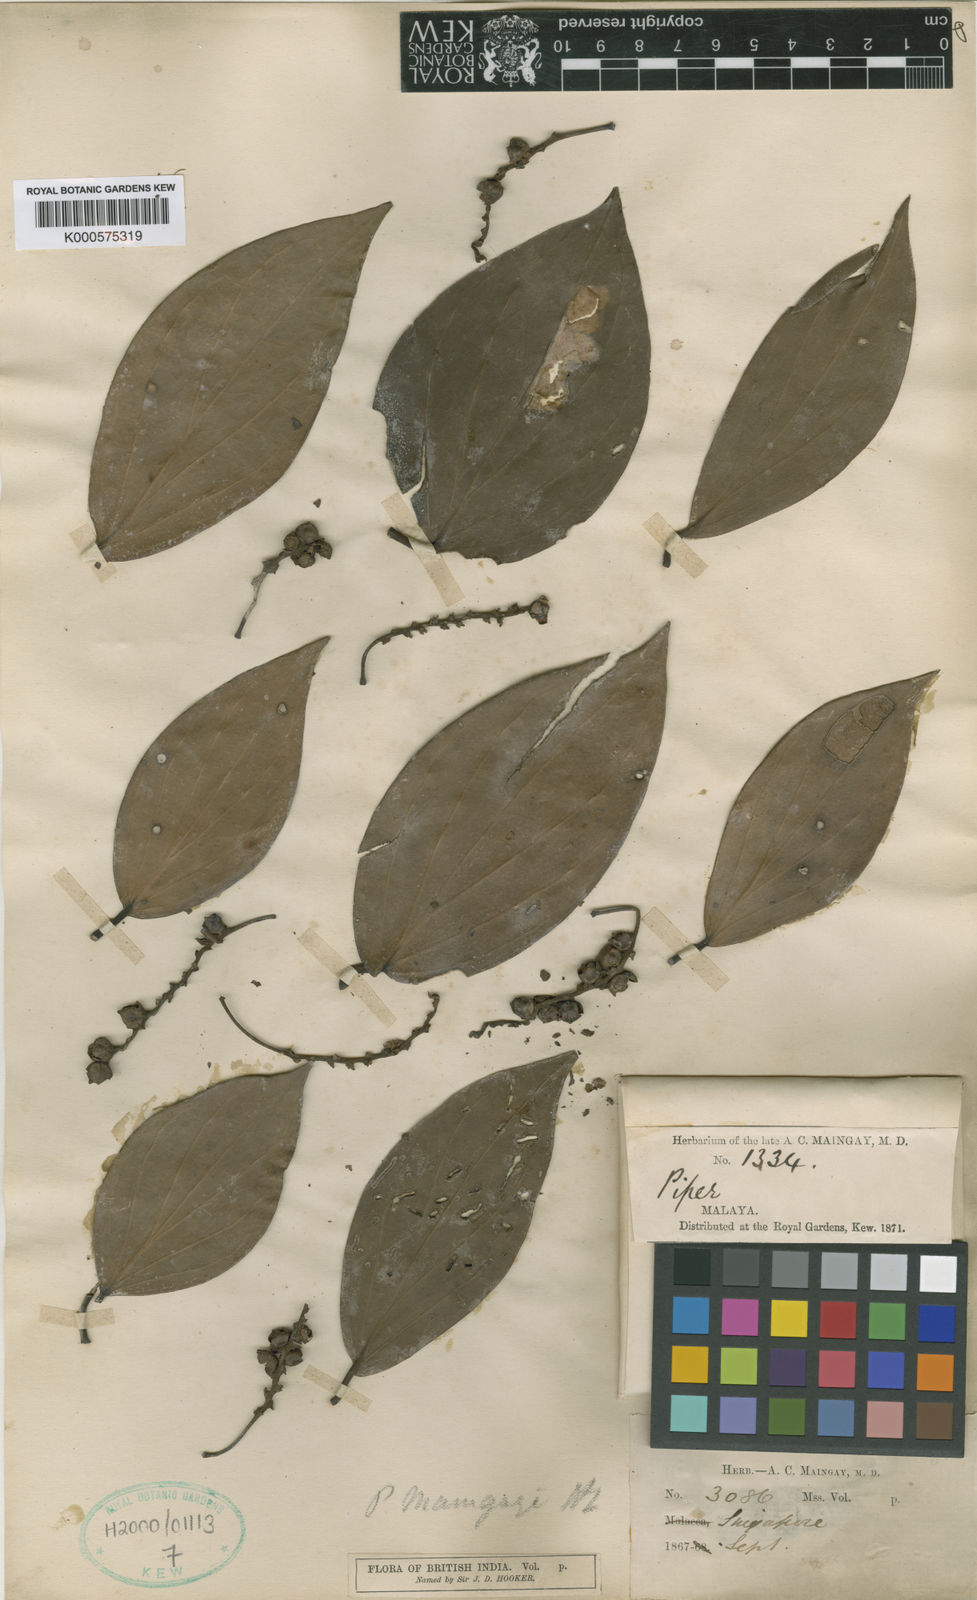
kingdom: Plantae
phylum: Tracheophyta
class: Magnoliopsida
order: Piperales
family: Piperaceae
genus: Piper
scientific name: Piper maingayi
